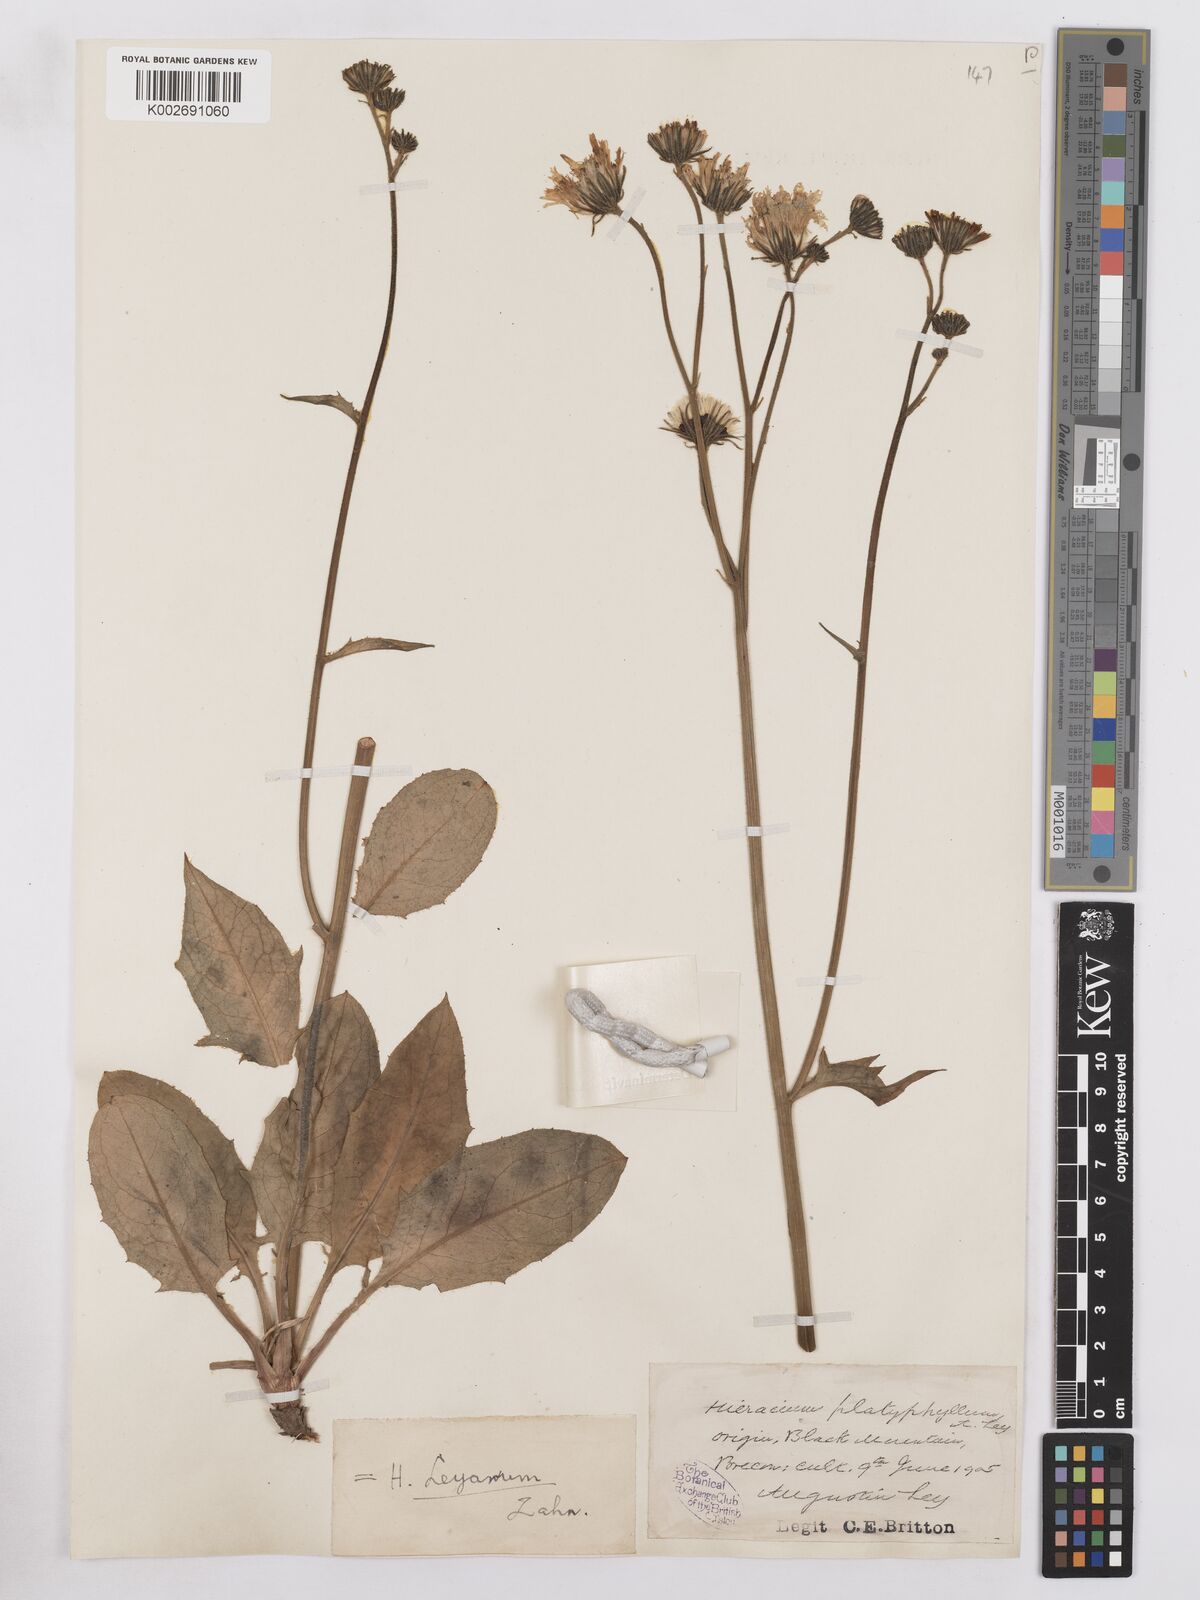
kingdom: Plantae
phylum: Tracheophyta
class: Magnoliopsida
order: Asterales
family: Asteraceae
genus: Hieracium
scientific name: Hieracium leyanum
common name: Fat-leaved hawkweed
